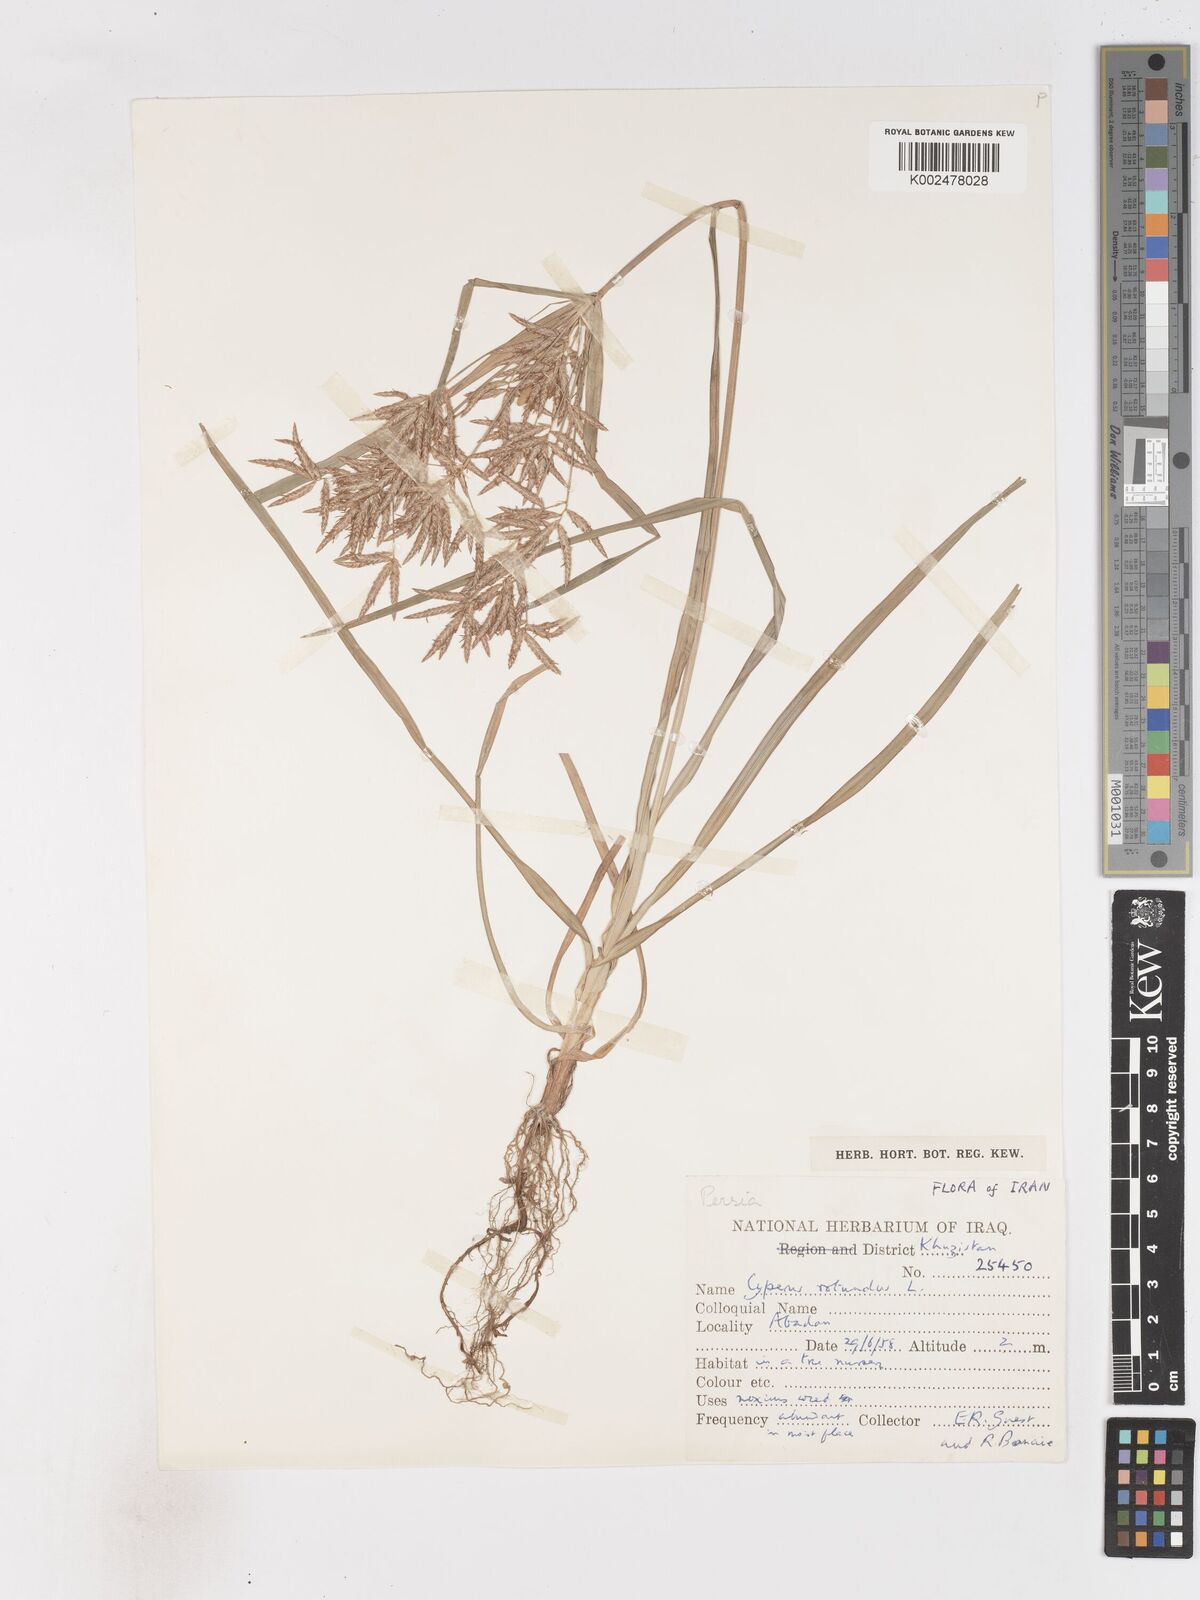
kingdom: Plantae
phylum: Tracheophyta
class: Liliopsida
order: Poales
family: Cyperaceae
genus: Cyperus
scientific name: Cyperus rotundus
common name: Nutgrass
